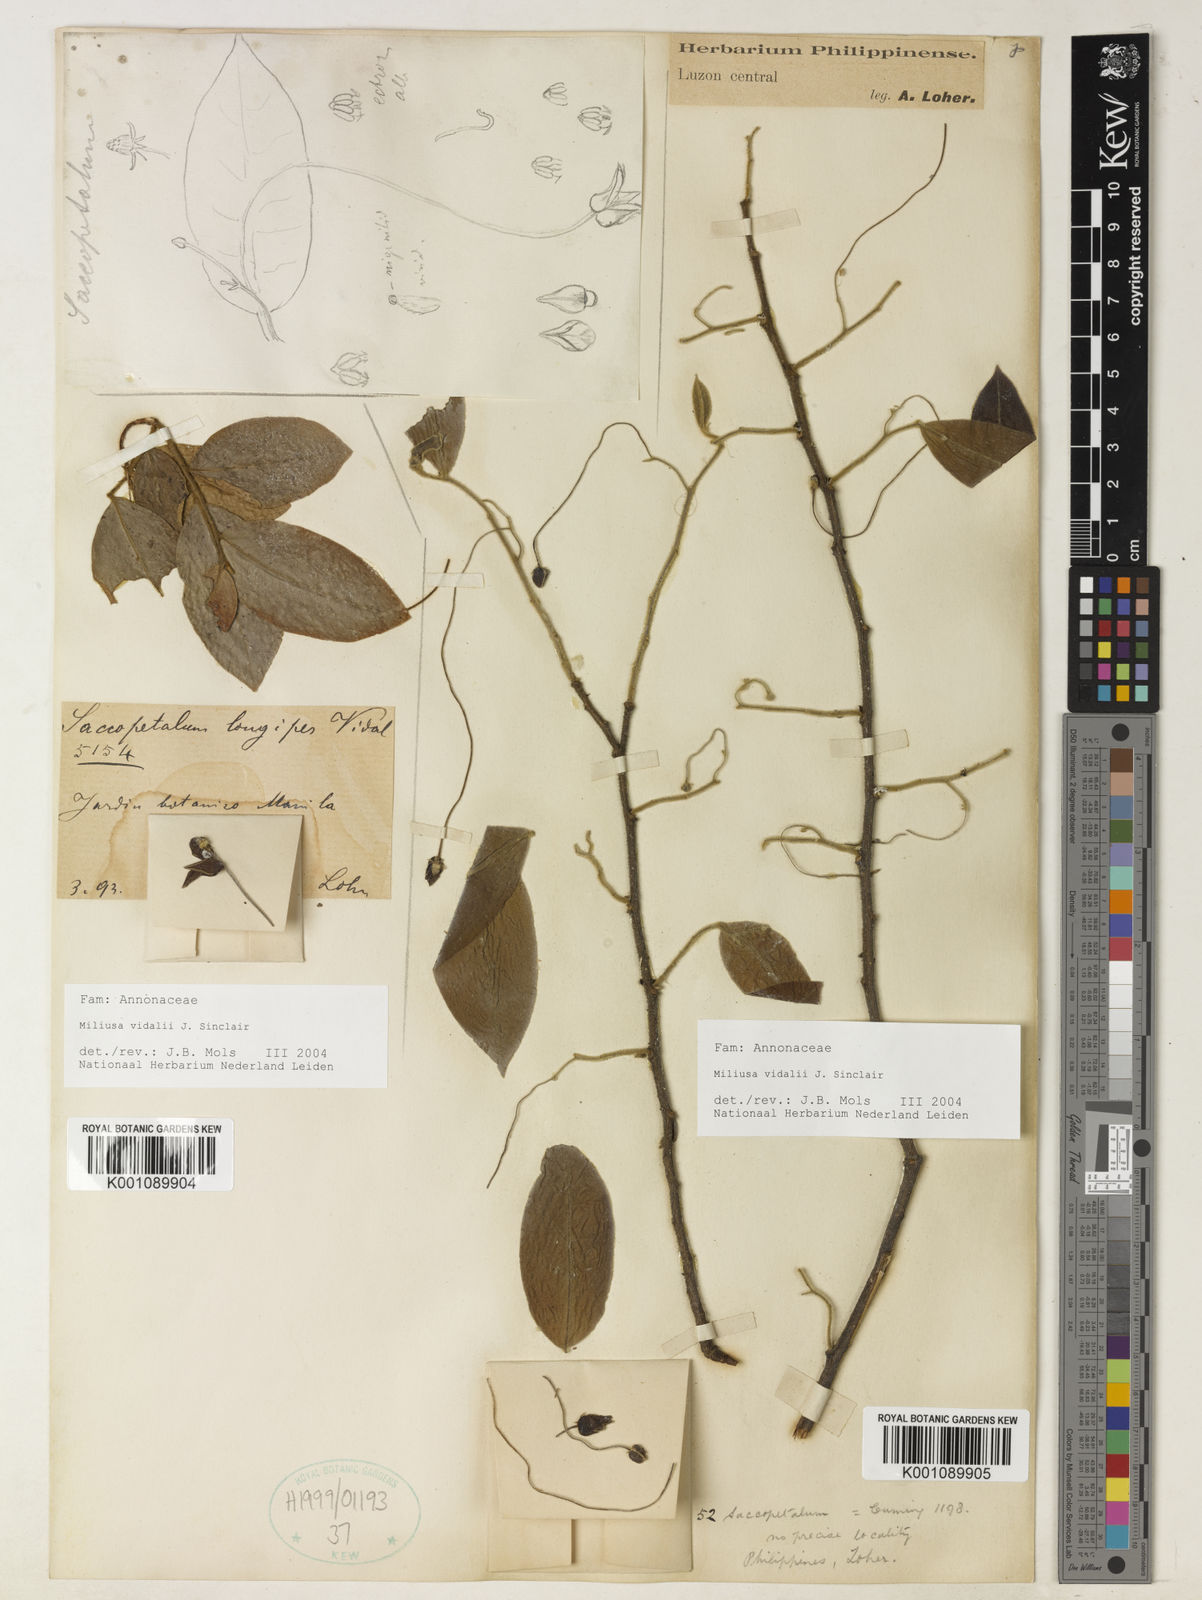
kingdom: Plantae
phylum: Tracheophyta
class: Magnoliopsida
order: Magnoliales
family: Annonaceae
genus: Miliusa
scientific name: Miliusa longipes
